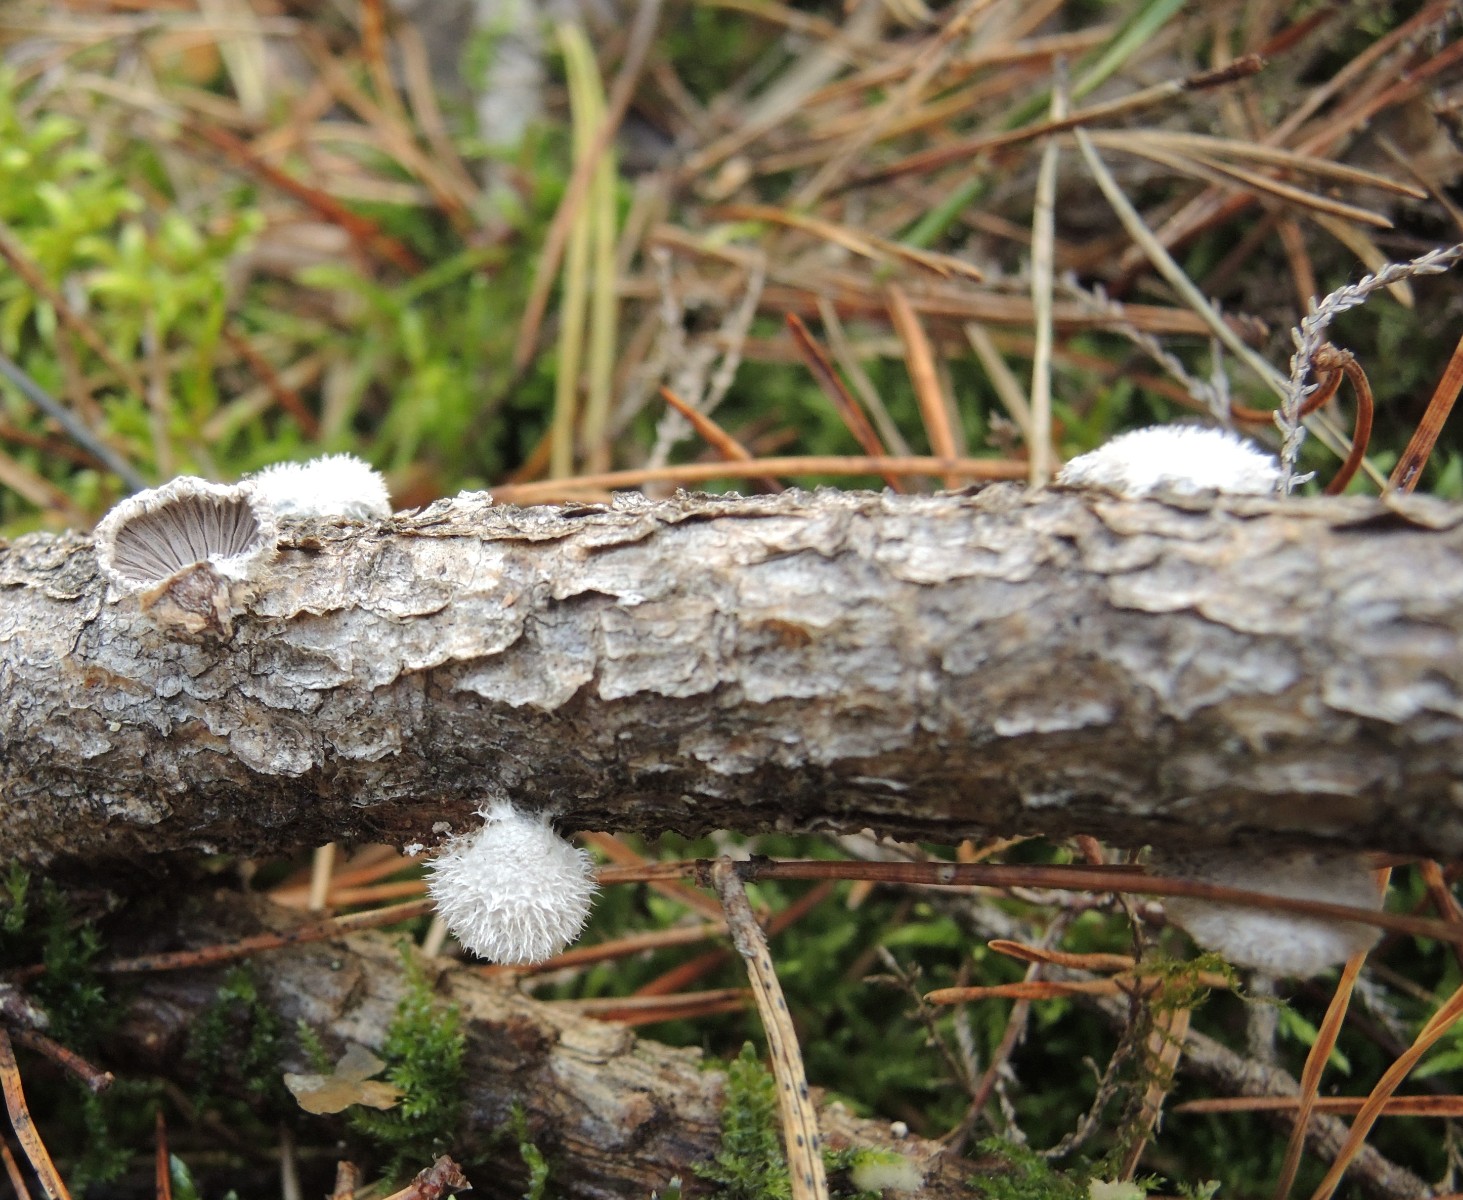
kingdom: Fungi
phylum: Basidiomycota
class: Agaricomycetes
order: Agaricales
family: Schizophyllaceae
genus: Schizophyllum
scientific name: Schizophyllum commune
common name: kløvblad
